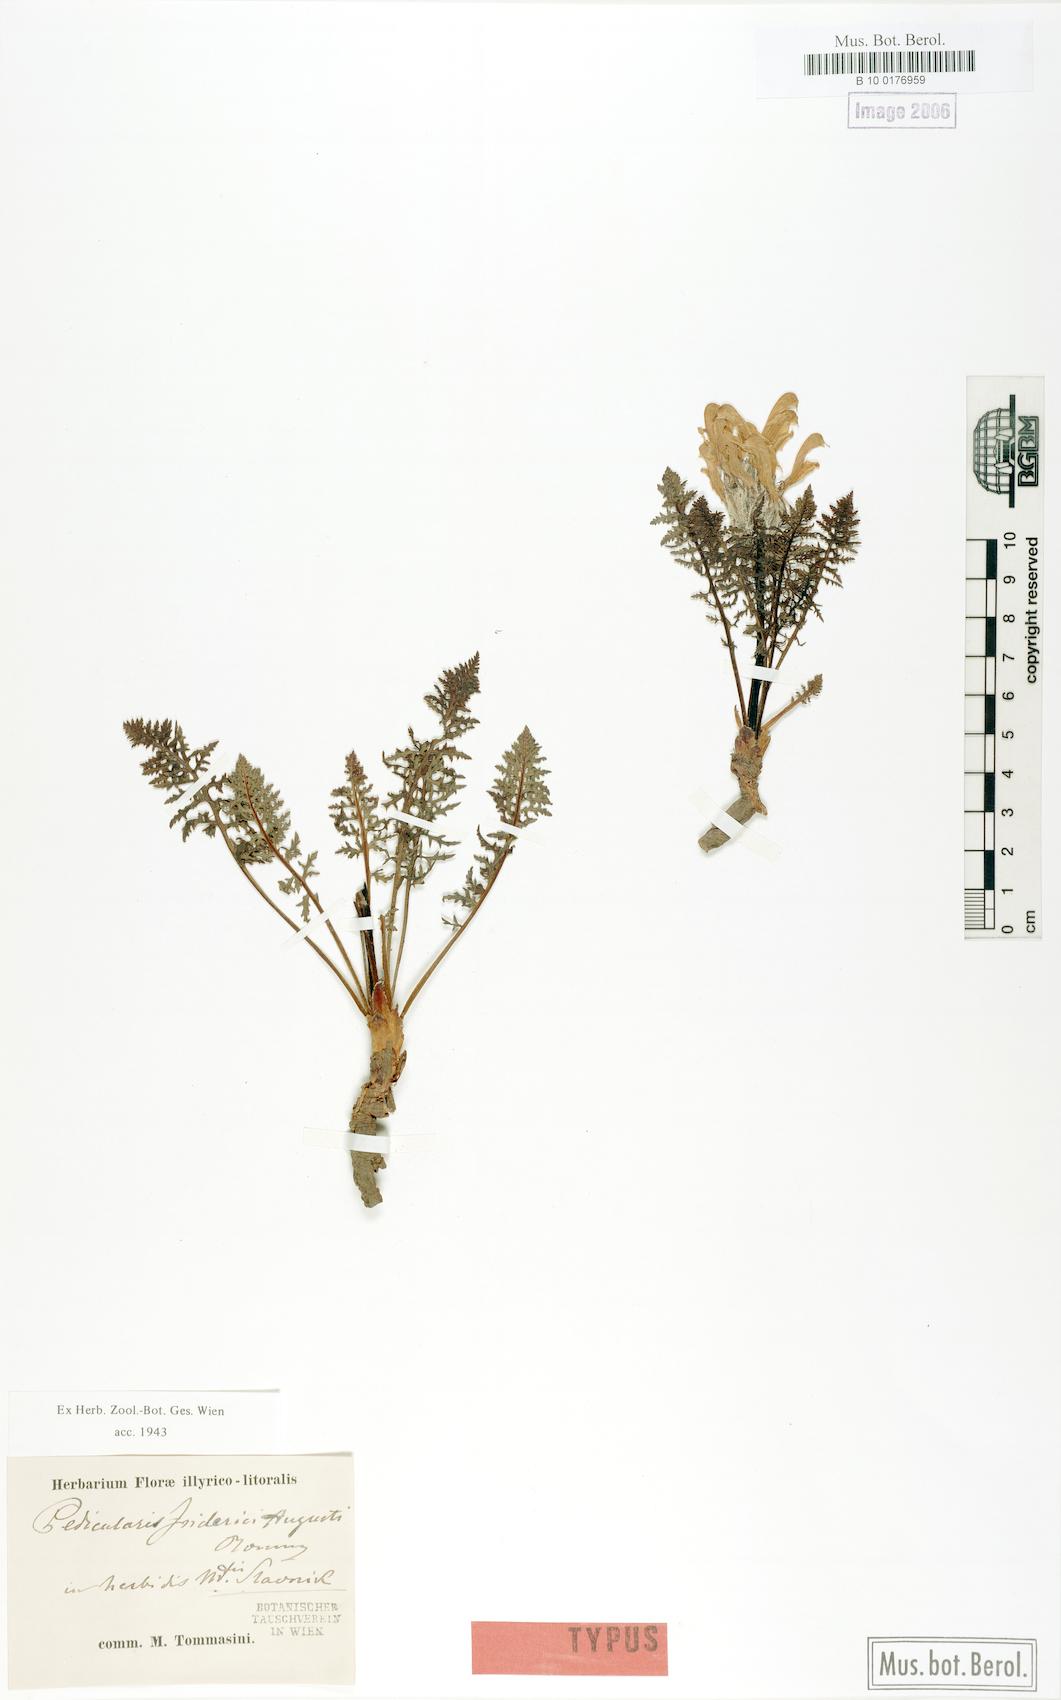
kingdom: Plantae
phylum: Tracheophyta
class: Magnoliopsida
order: Lamiales
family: Orobanchaceae
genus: Pedicularis
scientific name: Pedicularis friderici-augusti
